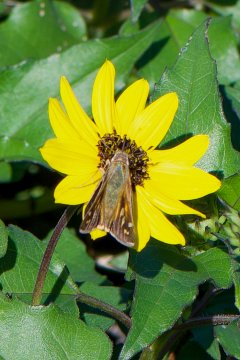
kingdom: Animalia
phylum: Arthropoda
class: Insecta
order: Lepidoptera
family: Hesperiidae
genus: Atalopedes
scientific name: Atalopedes campestris
